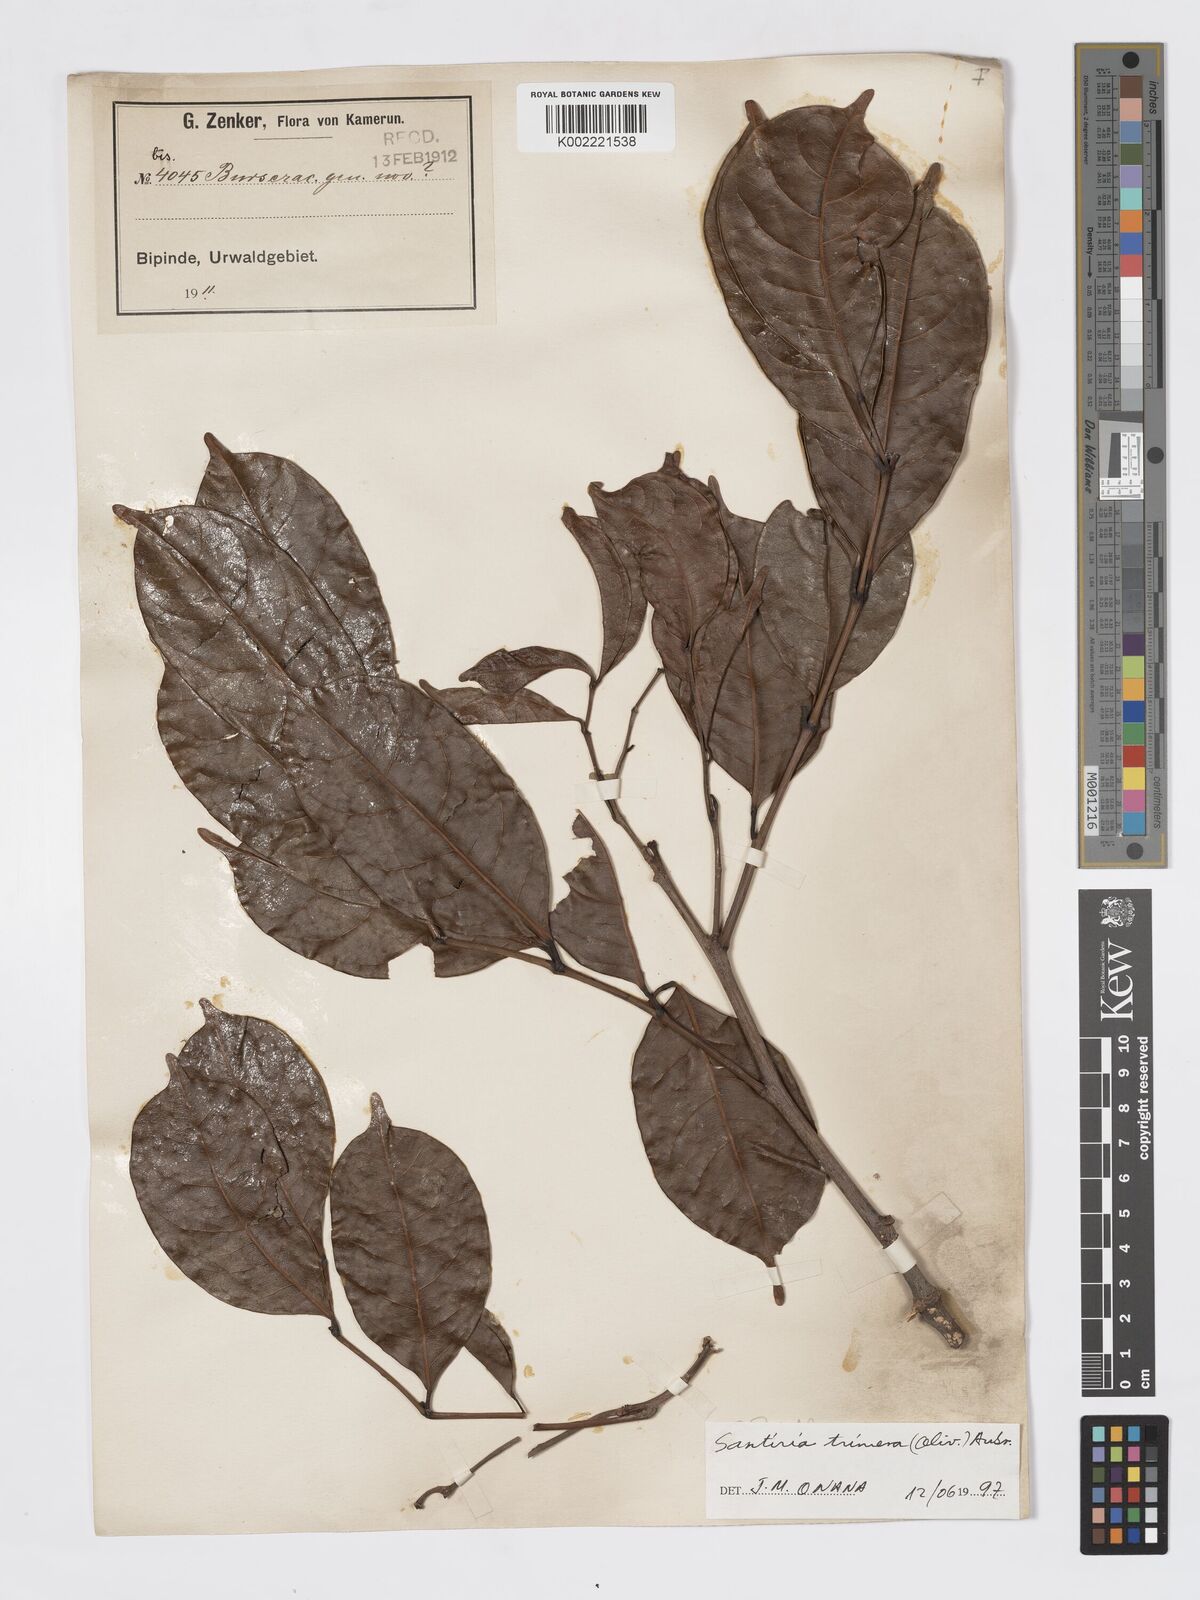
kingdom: Plantae
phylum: Tracheophyta
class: Magnoliopsida
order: Sapindales
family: Burseraceae
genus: Pachylobus
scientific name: Pachylobus trimerus
